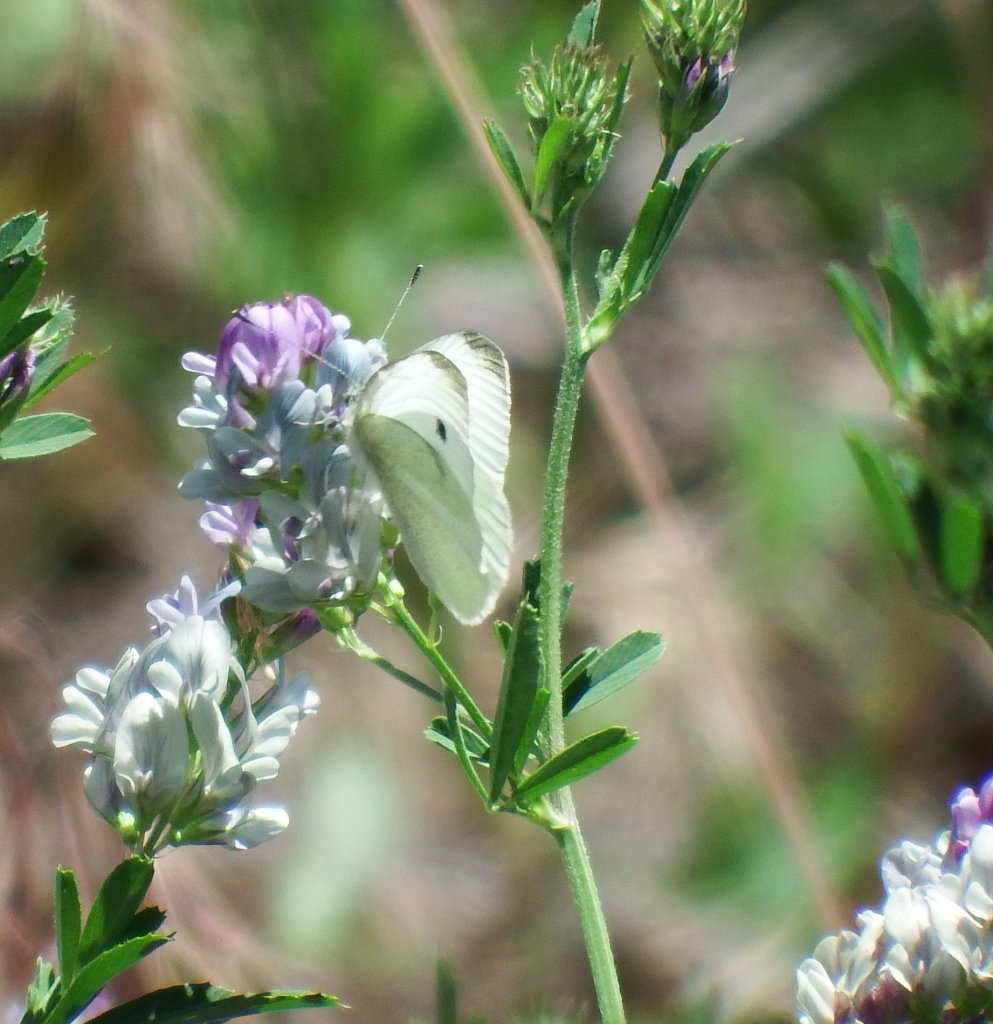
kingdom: Animalia
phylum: Arthropoda
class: Insecta
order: Lepidoptera
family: Pieridae
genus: Pieris
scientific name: Pieris rapae
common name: Cabbage White
